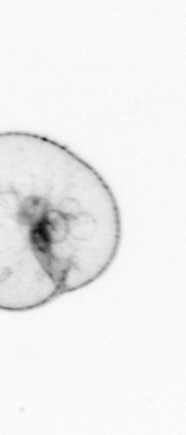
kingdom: Chromista
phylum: Myzozoa
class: Dinophyceae
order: Noctilucales
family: Noctilucaceae
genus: Noctiluca
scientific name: Noctiluca scintillans
